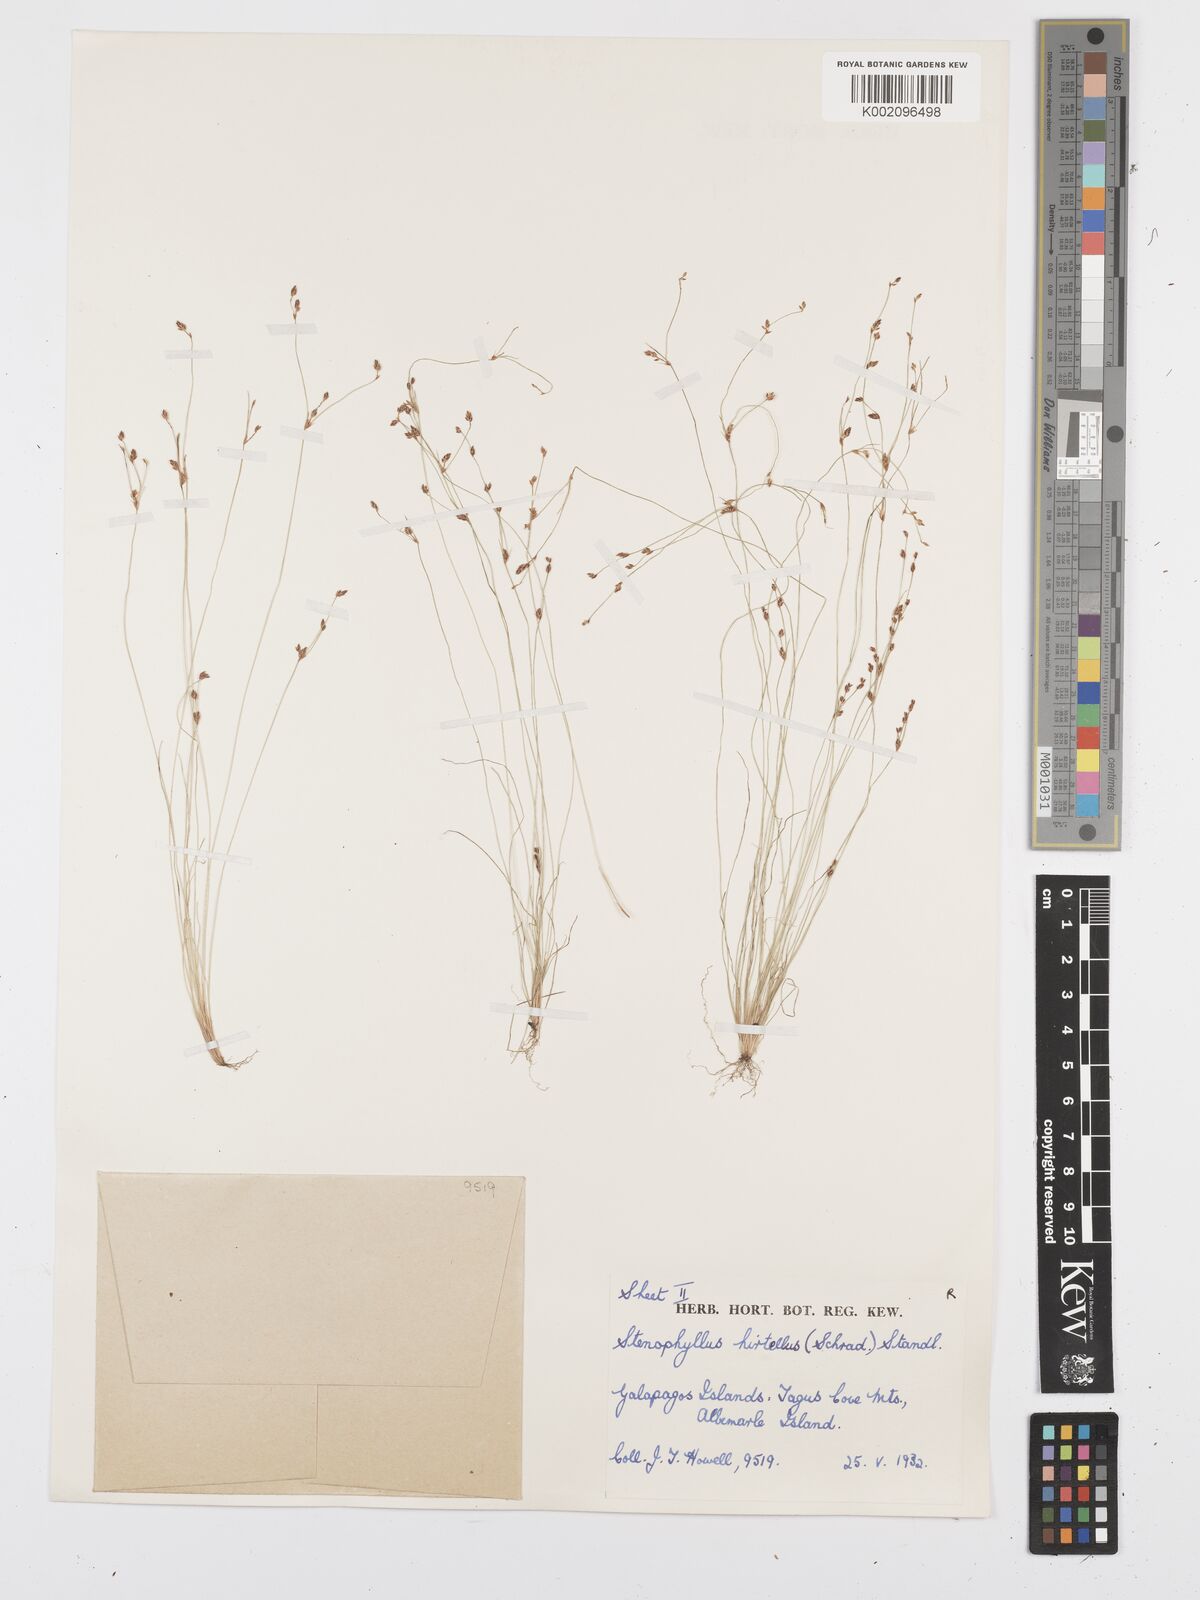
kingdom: Plantae
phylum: Tracheophyta
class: Liliopsida
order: Poales
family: Cyperaceae
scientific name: Cyperaceae
